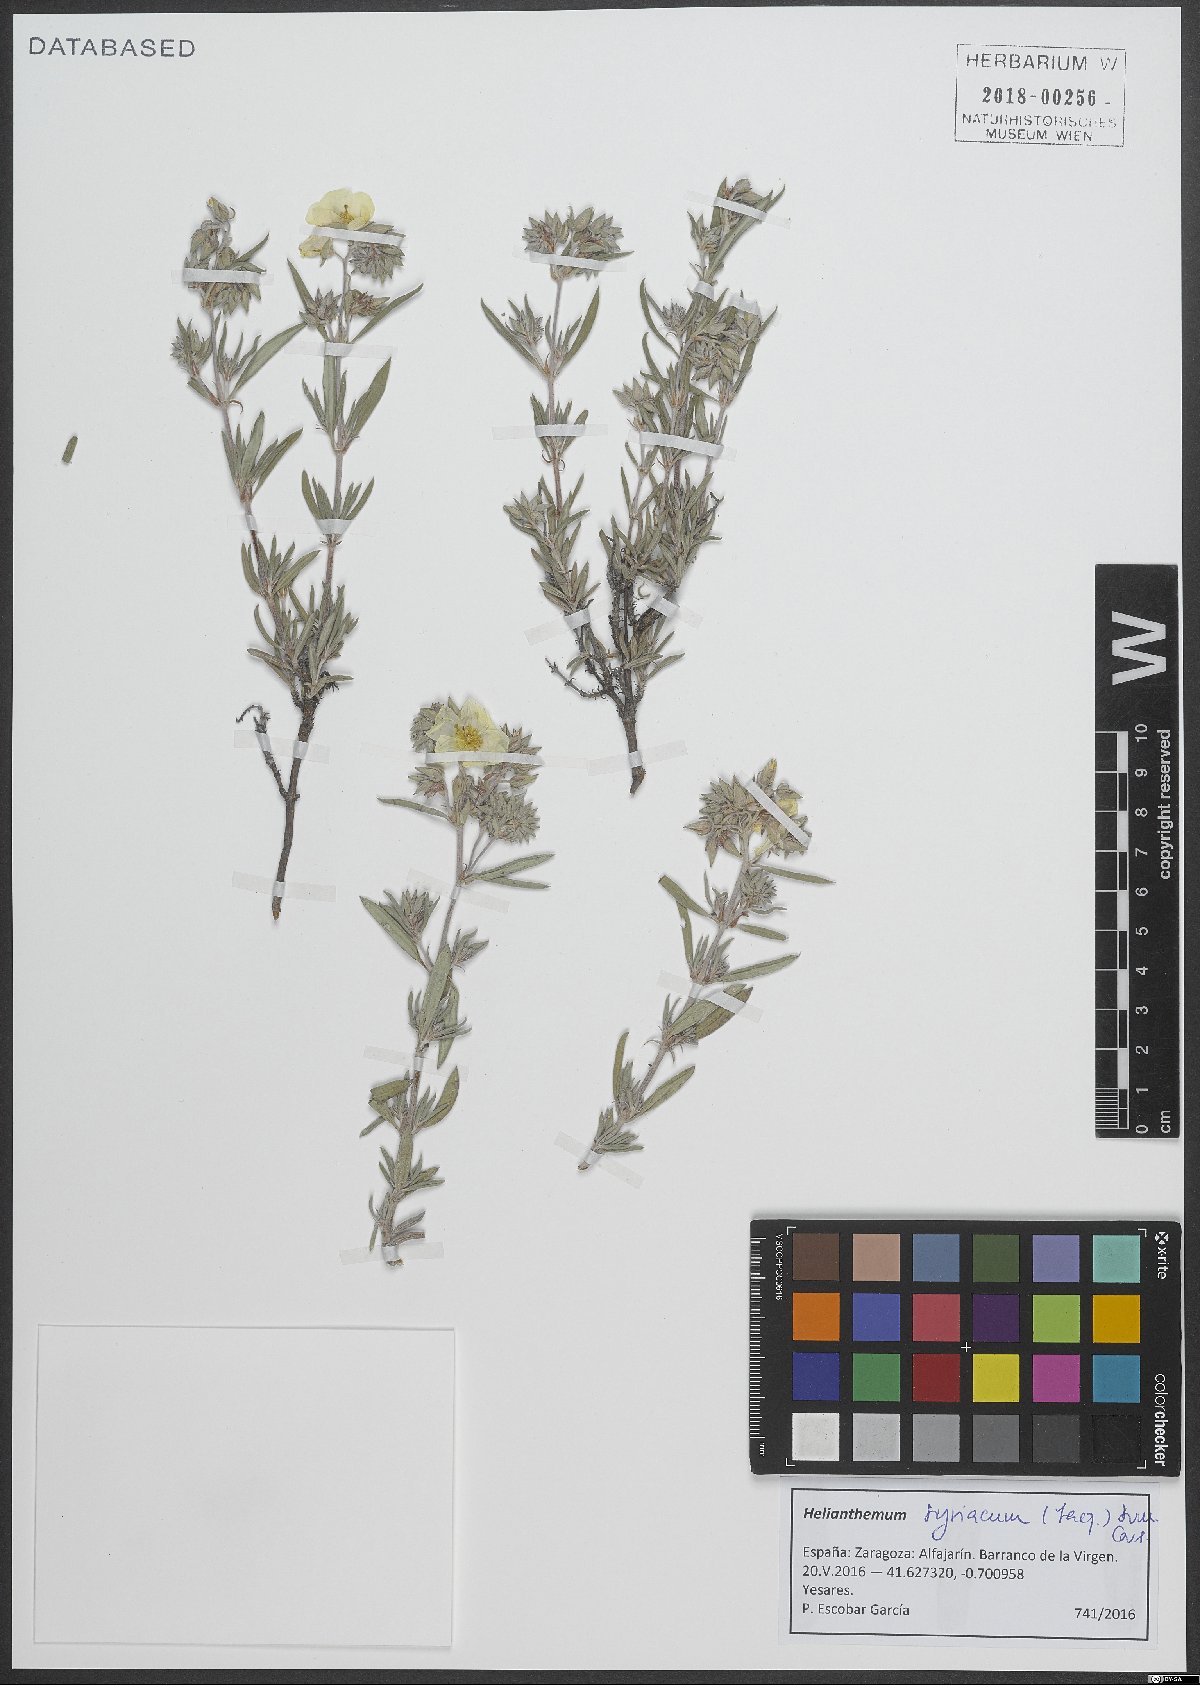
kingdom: Plantae
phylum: Tracheophyta
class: Magnoliopsida
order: Malvales
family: Cistaceae
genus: Helianthemum
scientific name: Helianthemum syriacum
